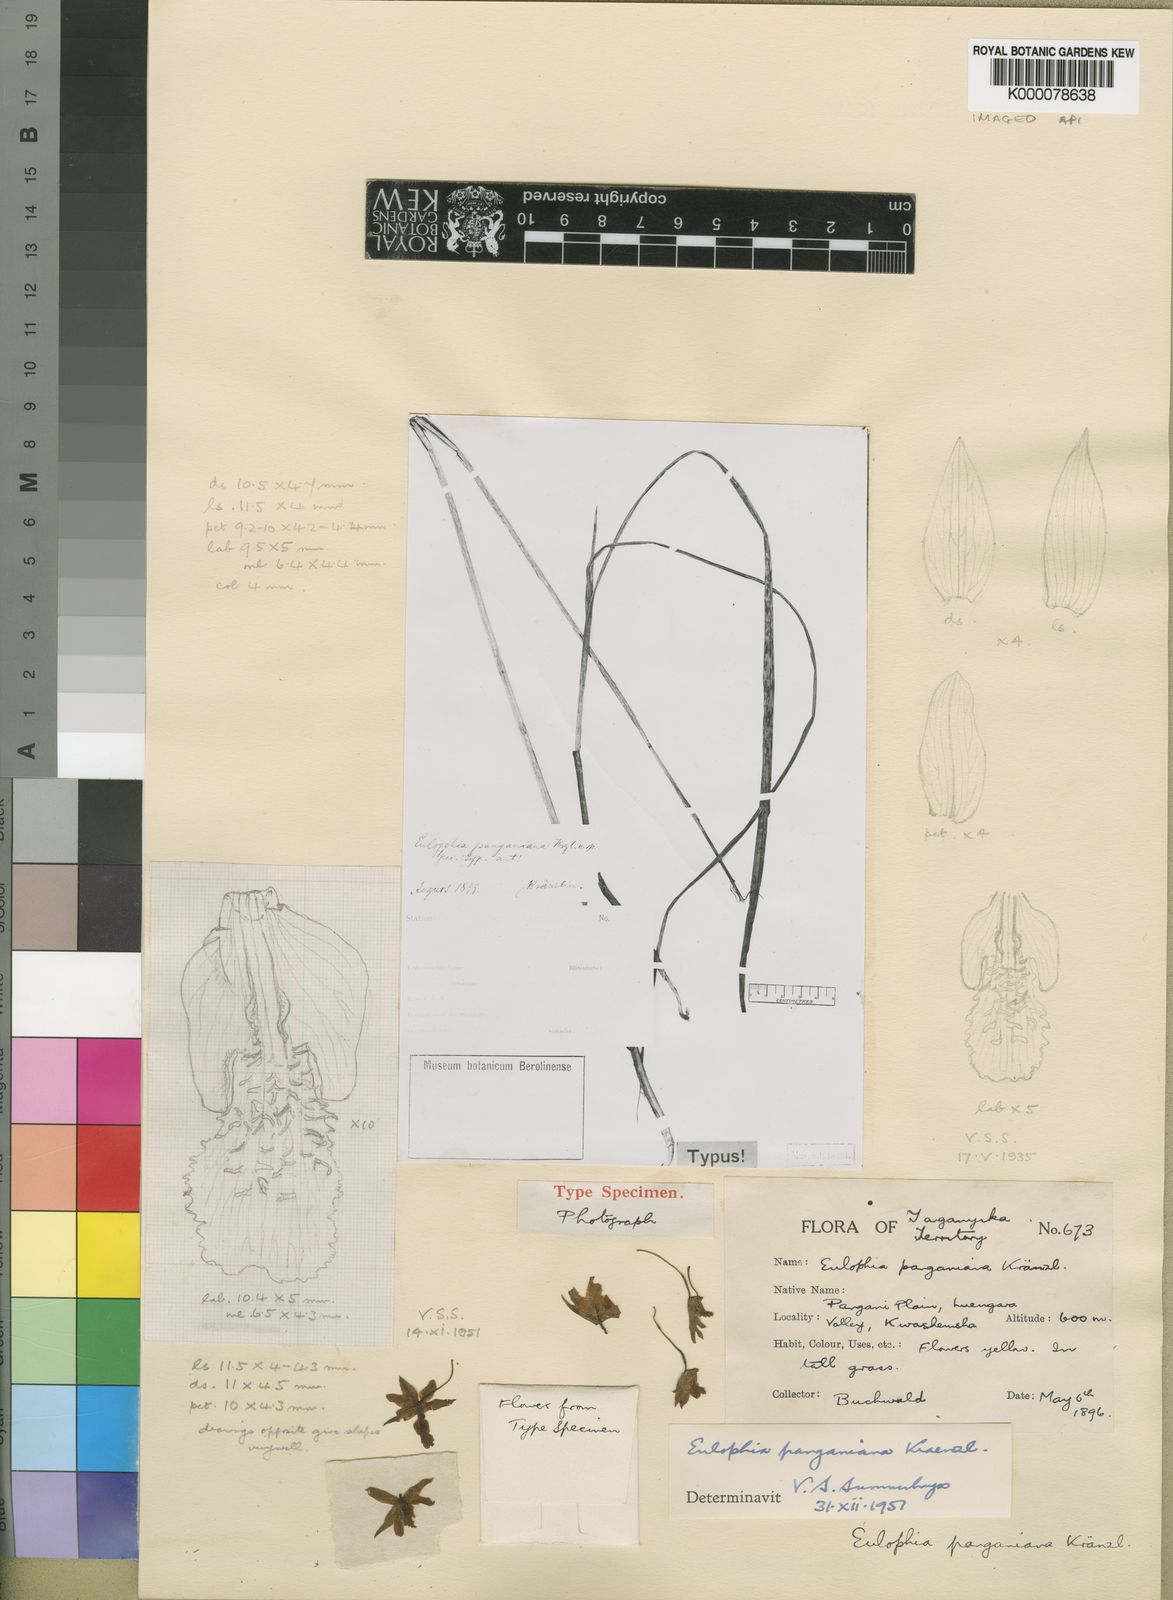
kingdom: Plantae
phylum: Tracheophyta
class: Liliopsida
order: Asparagales
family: Orchidaceae
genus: Eulophia
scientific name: Eulophia odontoglossa
